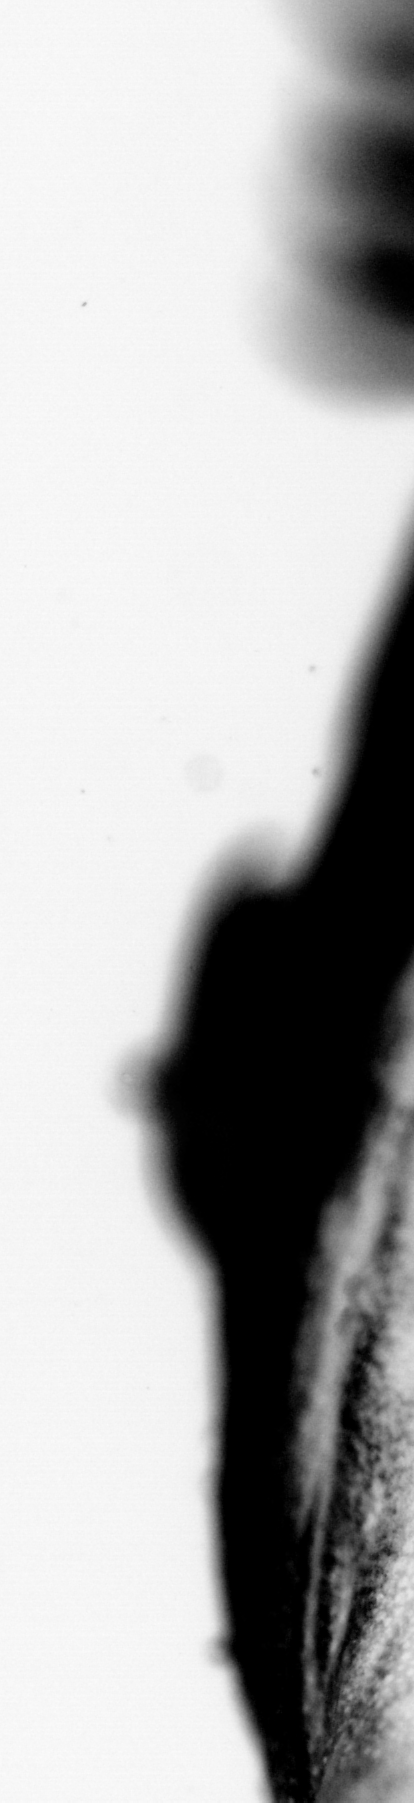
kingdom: Animalia
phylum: Chordata
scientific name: Chordata
